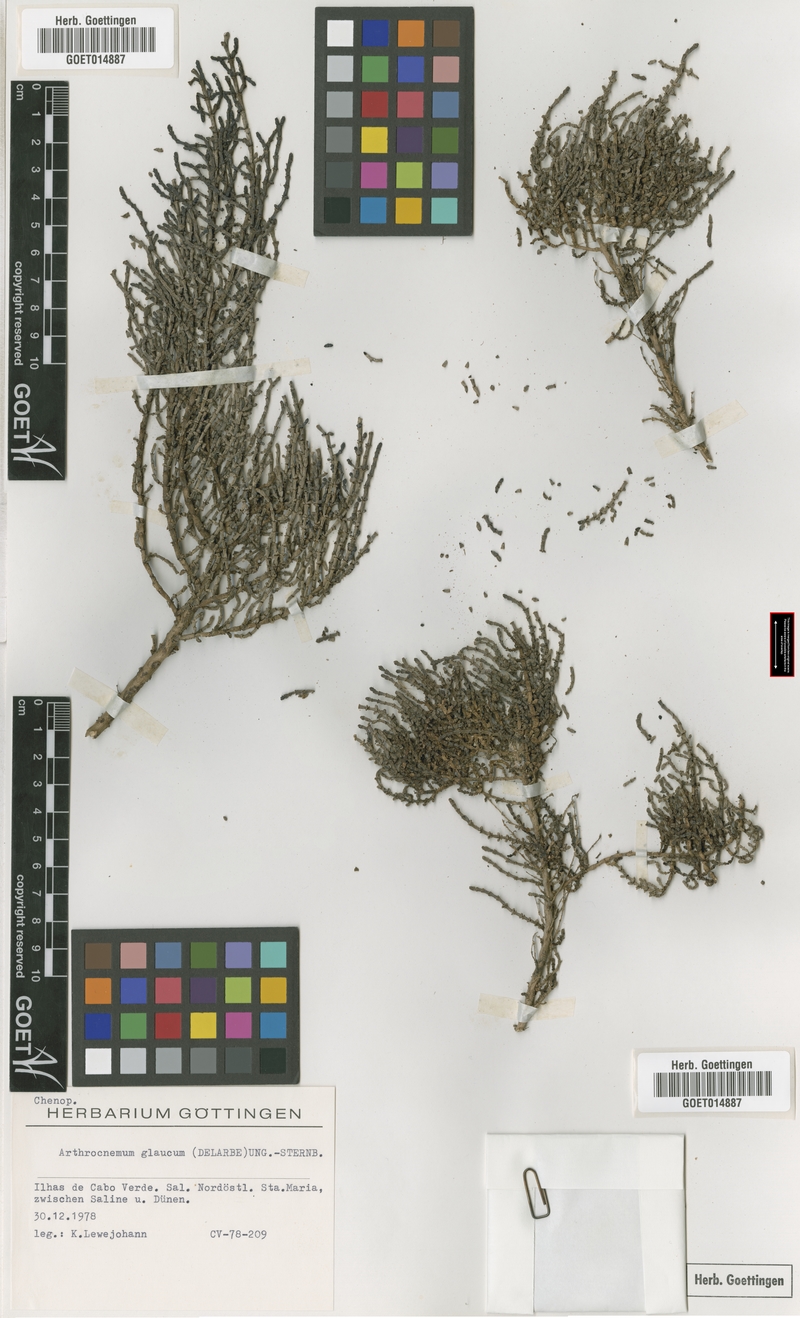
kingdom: Plantae
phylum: Tracheophyta
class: Magnoliopsida
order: Caryophyllales
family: Amaranthaceae
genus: Arthrocaulon
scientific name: Arthrocaulon macrostachyum
